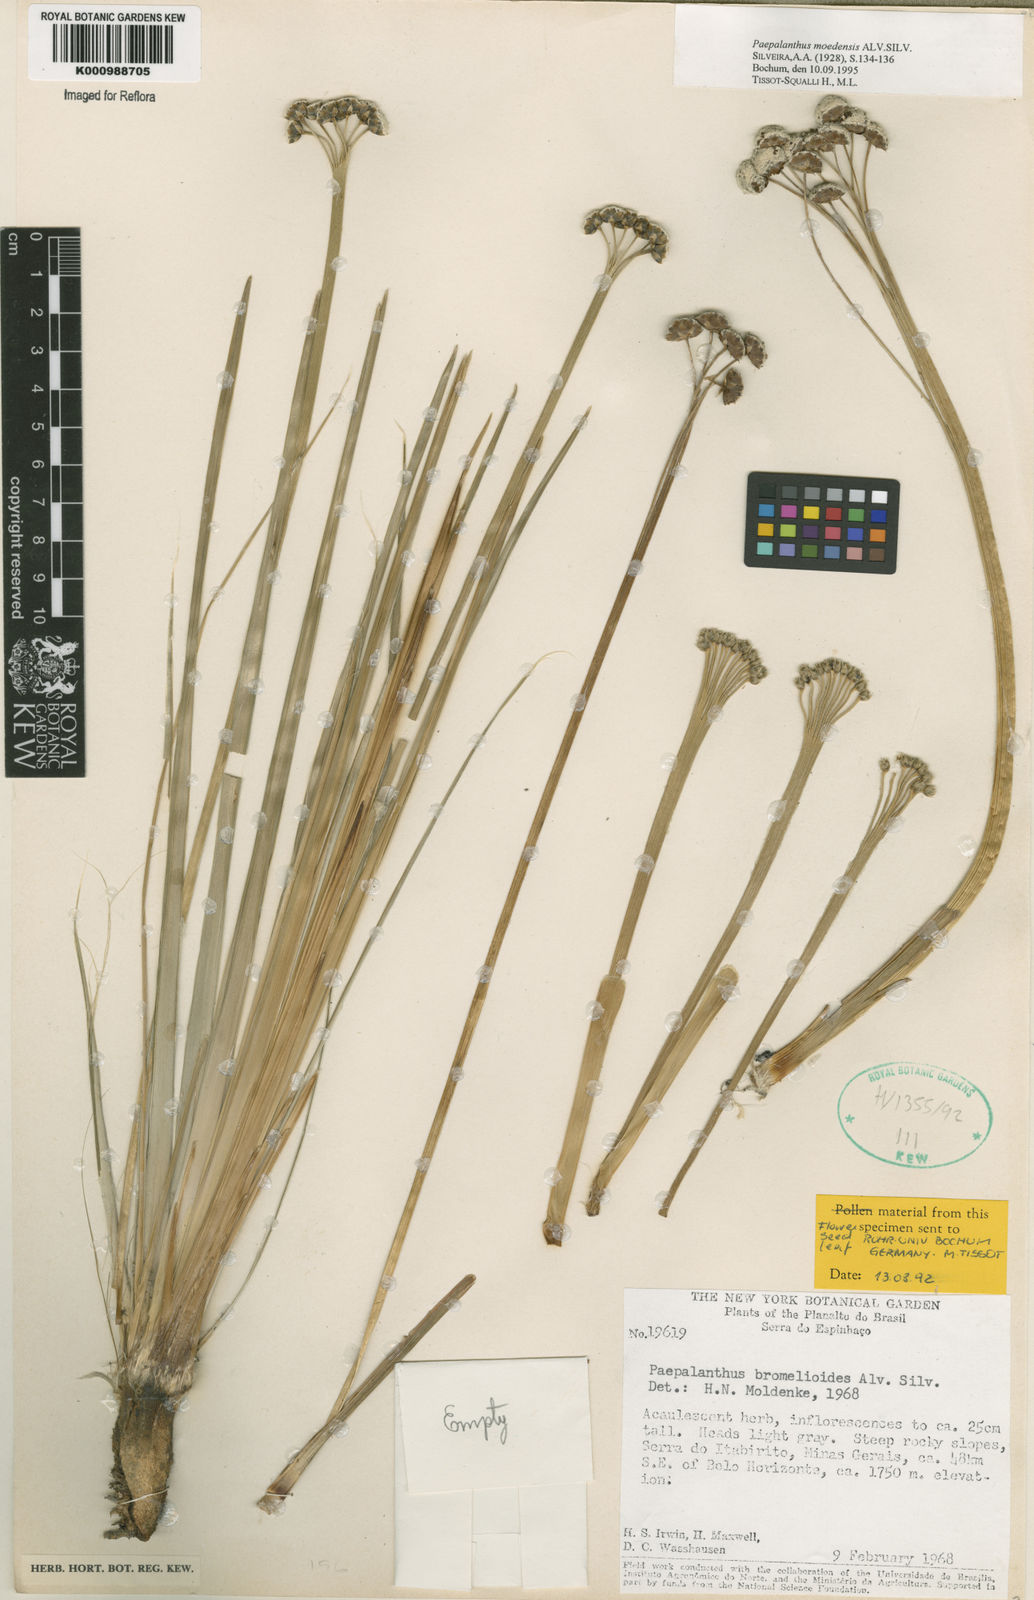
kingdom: Plantae
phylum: Tracheophyta
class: Liliopsida
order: Poales
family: Eriocaulaceae
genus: Paepalanthus
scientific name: Paepalanthus moedensis
